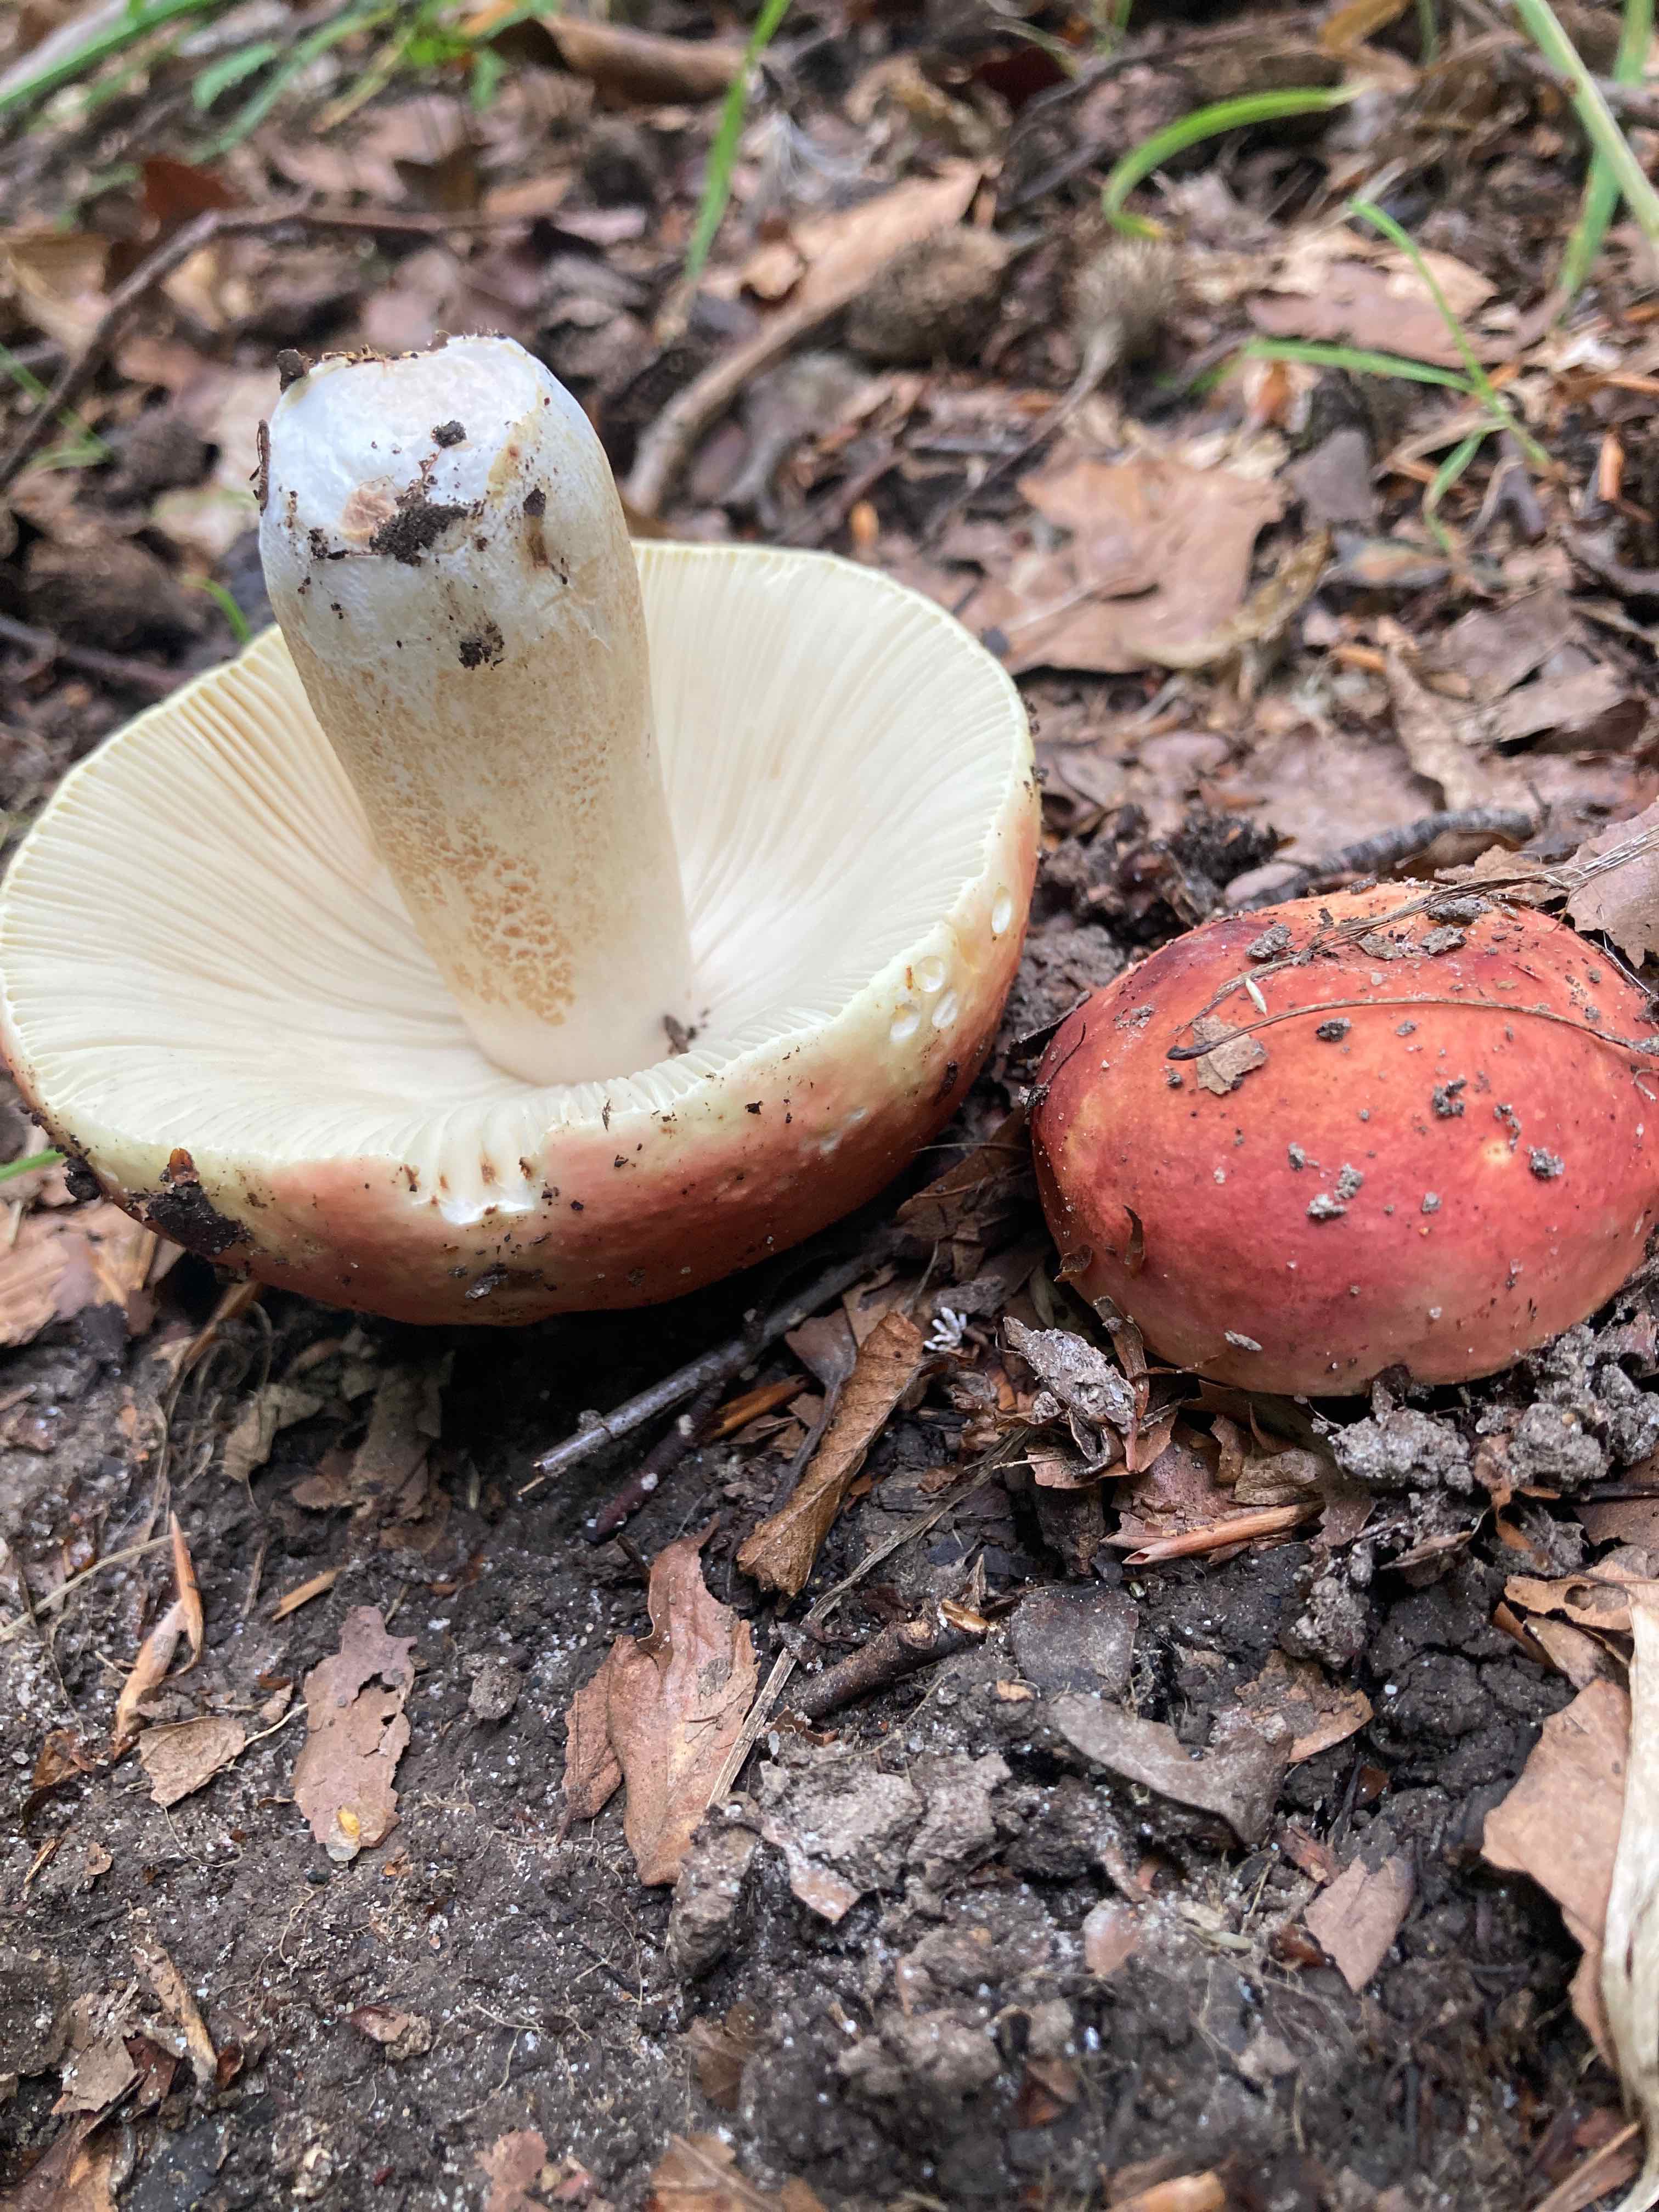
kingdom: Fungi
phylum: Basidiomycota
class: Agaricomycetes
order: Russulales
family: Russulaceae
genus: Russula
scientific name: Russula
